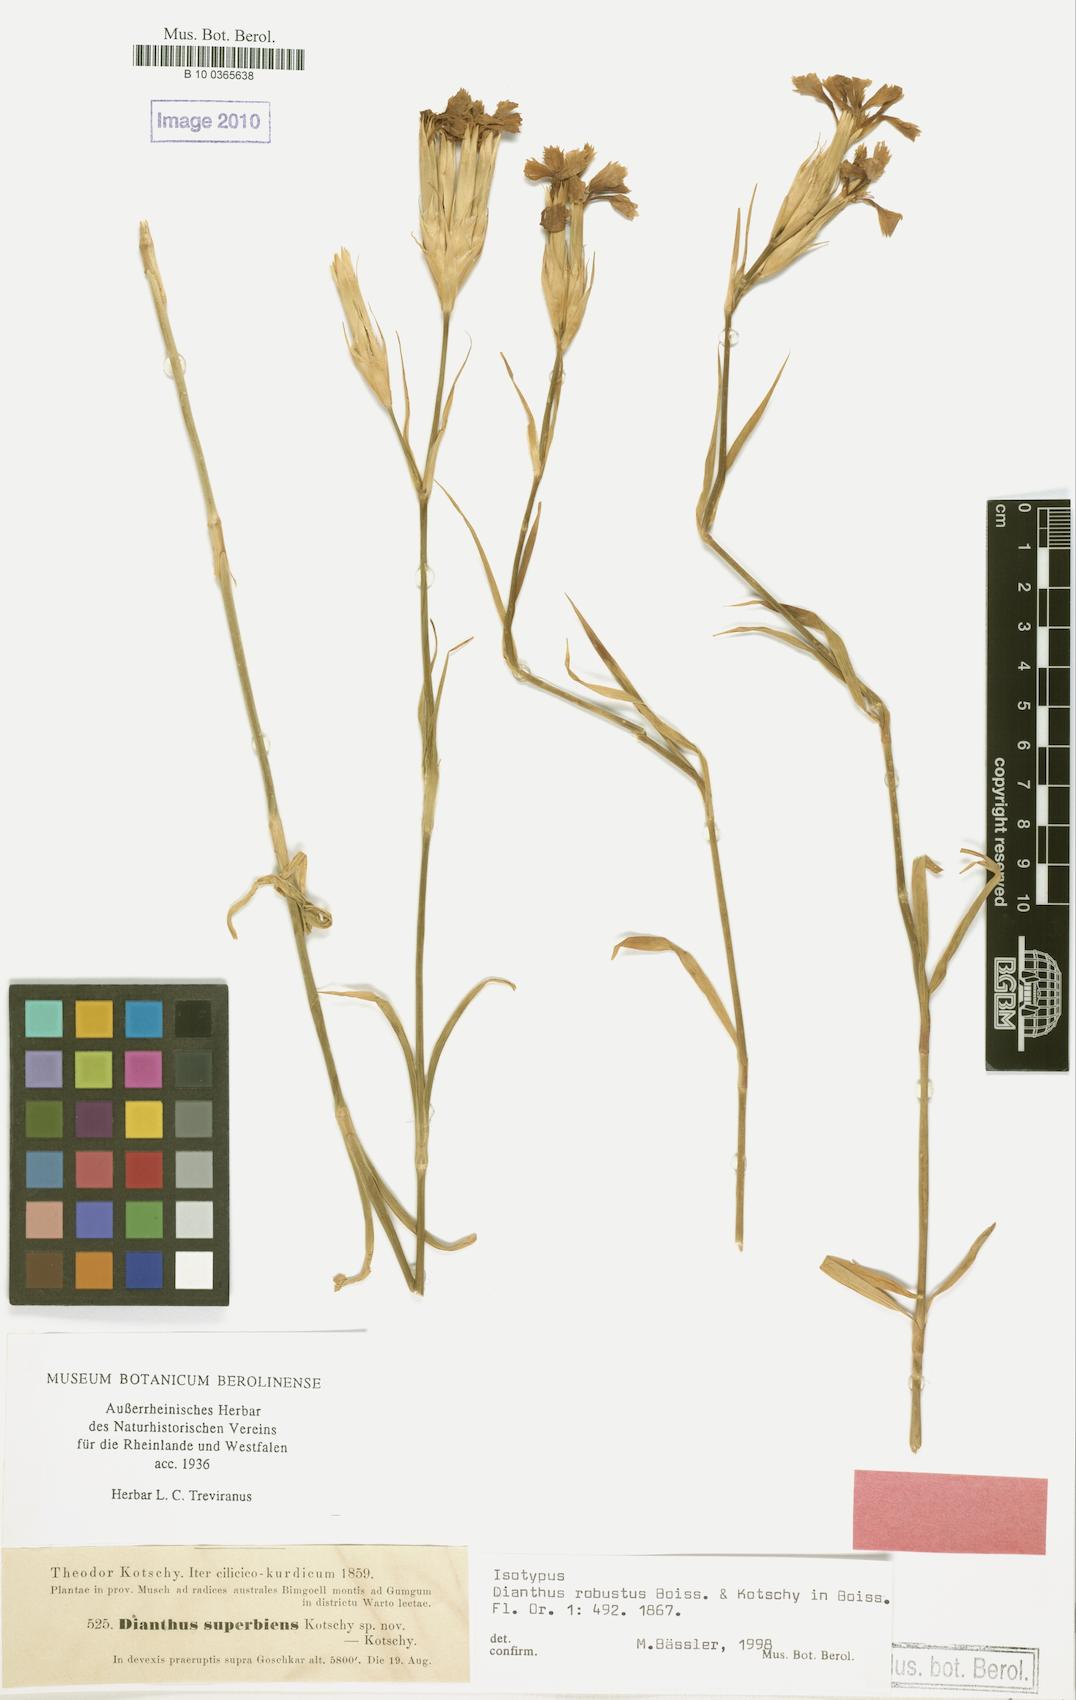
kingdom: Plantae
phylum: Tracheophyta
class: Magnoliopsida
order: Caryophyllales
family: Caryophyllaceae
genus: Dianthus
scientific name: Dianthus robustus
